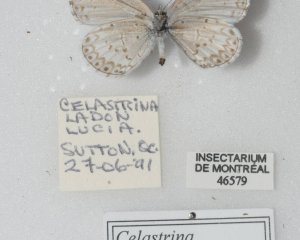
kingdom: Animalia
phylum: Arthropoda
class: Insecta
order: Lepidoptera
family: Lycaenidae
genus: Celastrina
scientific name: Celastrina lucia
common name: Northern Spring Azure
